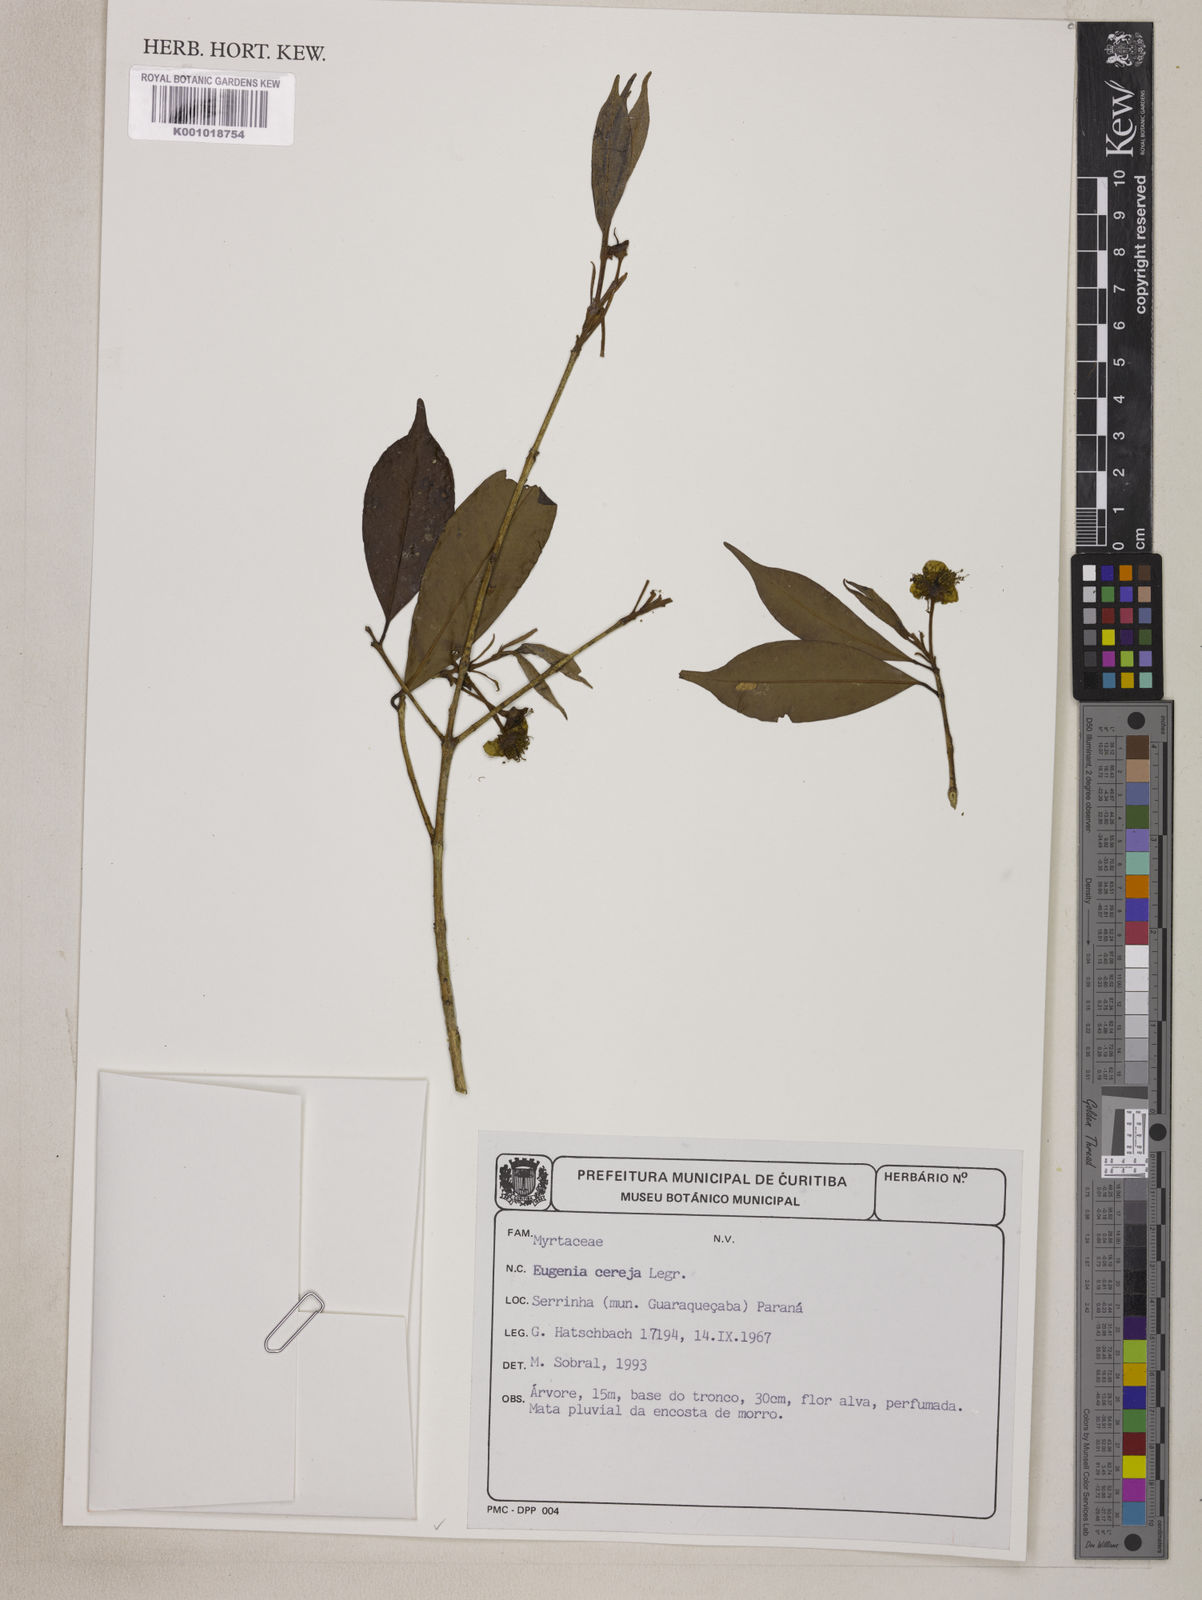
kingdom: Plantae
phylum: Tracheophyta
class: Magnoliopsida
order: Myrtales
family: Myrtaceae
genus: Eugenia
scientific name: Eugenia cereja
